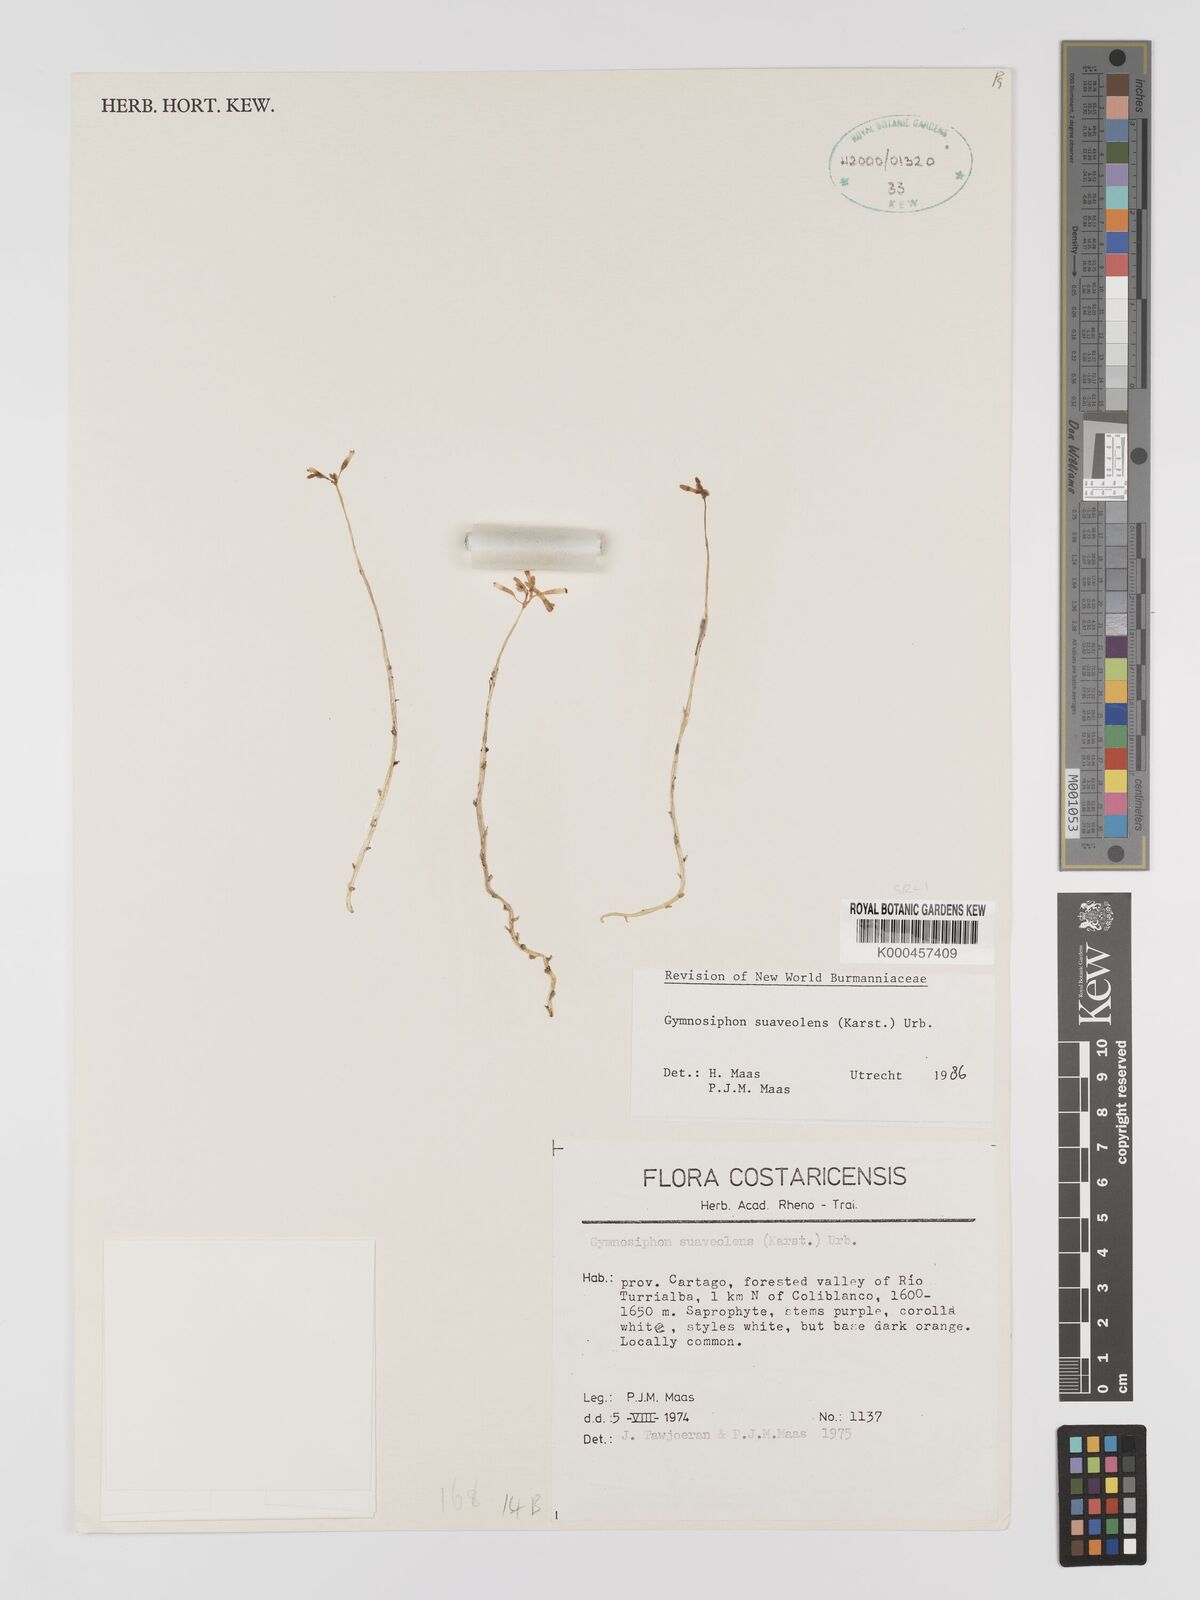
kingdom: Plantae
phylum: Tracheophyta
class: Liliopsida
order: Dioscoreales
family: Burmanniaceae
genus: Gymnosiphon
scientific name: Gymnosiphon suaveolens
